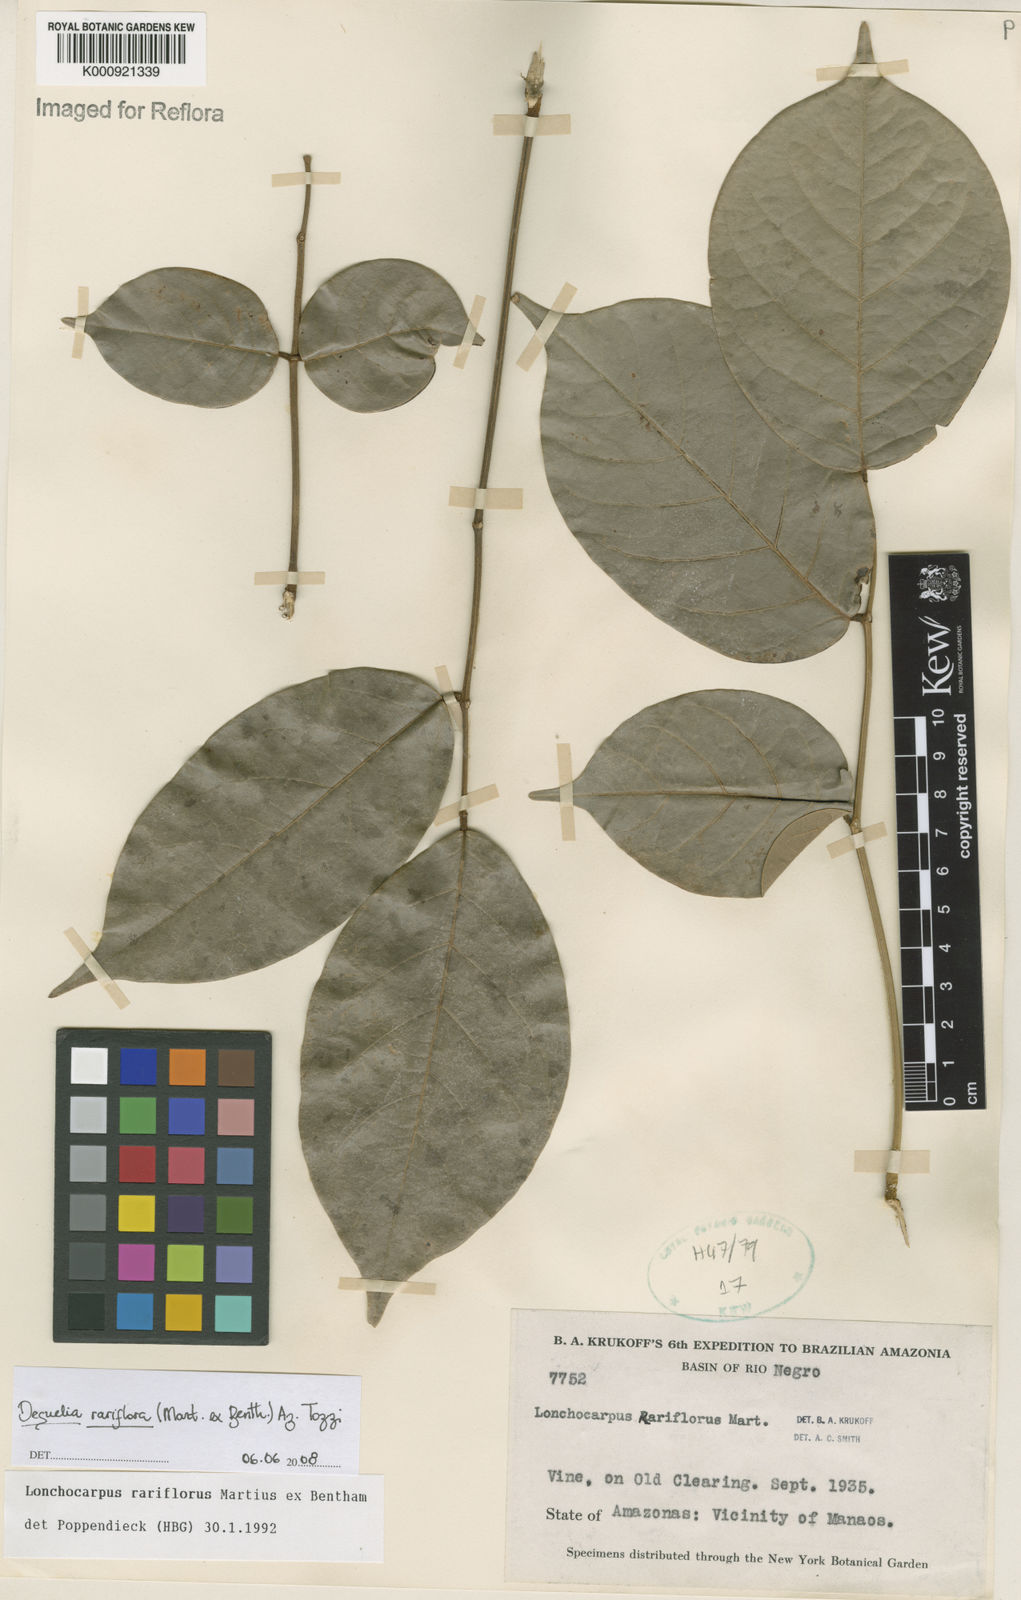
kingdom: Plantae
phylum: Tracheophyta
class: Magnoliopsida
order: Fabales
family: Fabaceae
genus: Deguelia
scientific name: Deguelia
